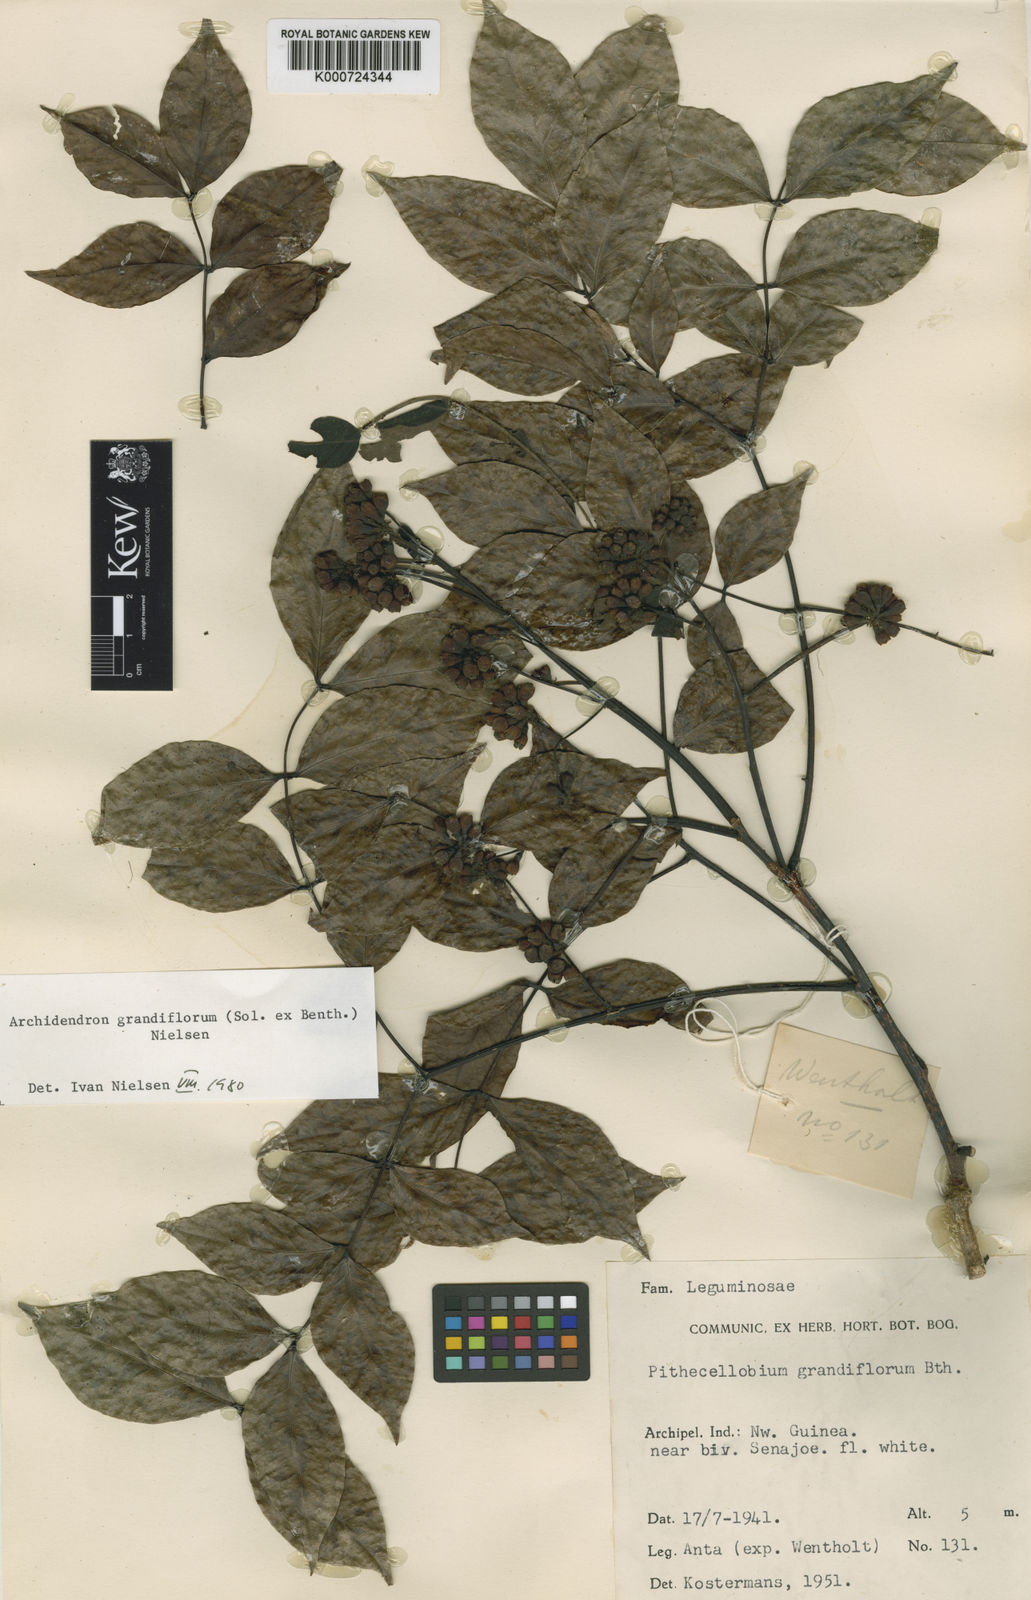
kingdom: Plantae
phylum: Tracheophyta
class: Magnoliopsida
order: Fabales
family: Fabaceae
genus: Archidendron
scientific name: Archidendron grandiflorum
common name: Tulip siris
